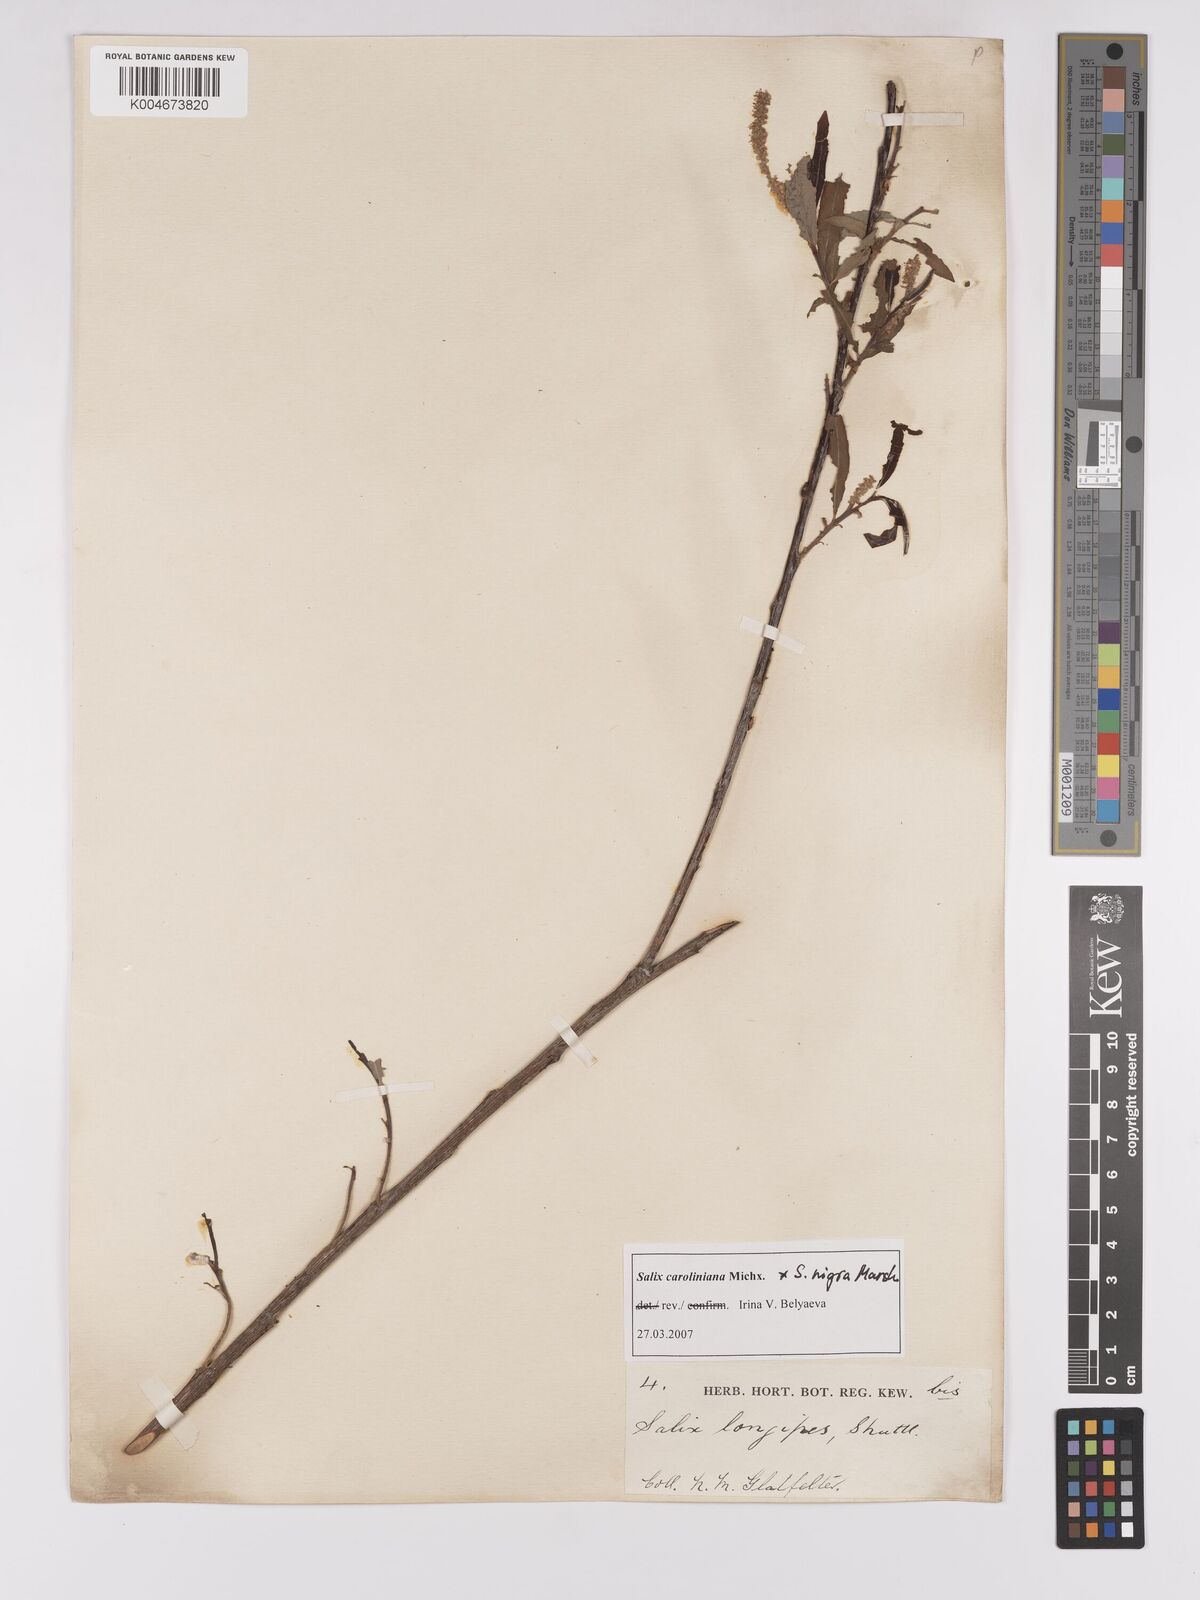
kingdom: Plantae
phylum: Tracheophyta
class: Magnoliopsida
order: Malpighiales
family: Salicaceae
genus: Salix
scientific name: Salix caroliniana
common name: Carolina willow
